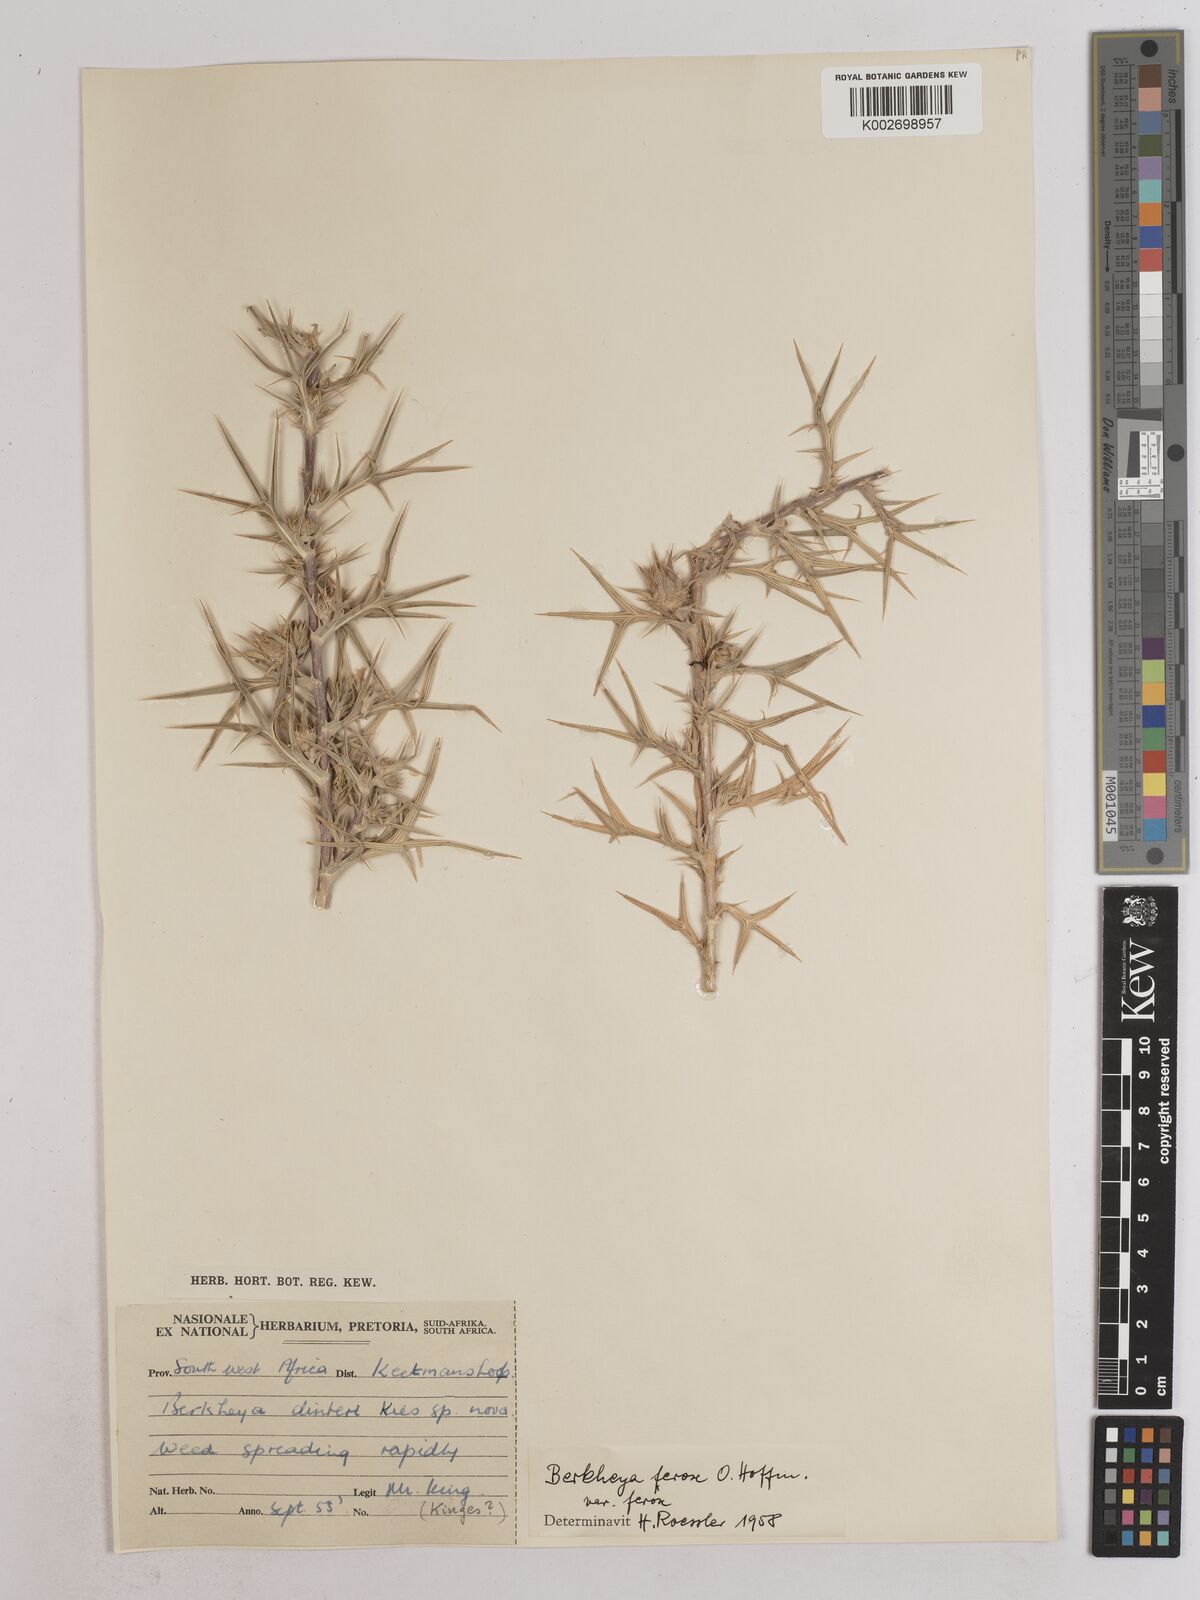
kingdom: Plantae
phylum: Tracheophyta
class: Magnoliopsida
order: Asterales
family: Asteraceae
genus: Berkheya
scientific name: Berkheya ferox
